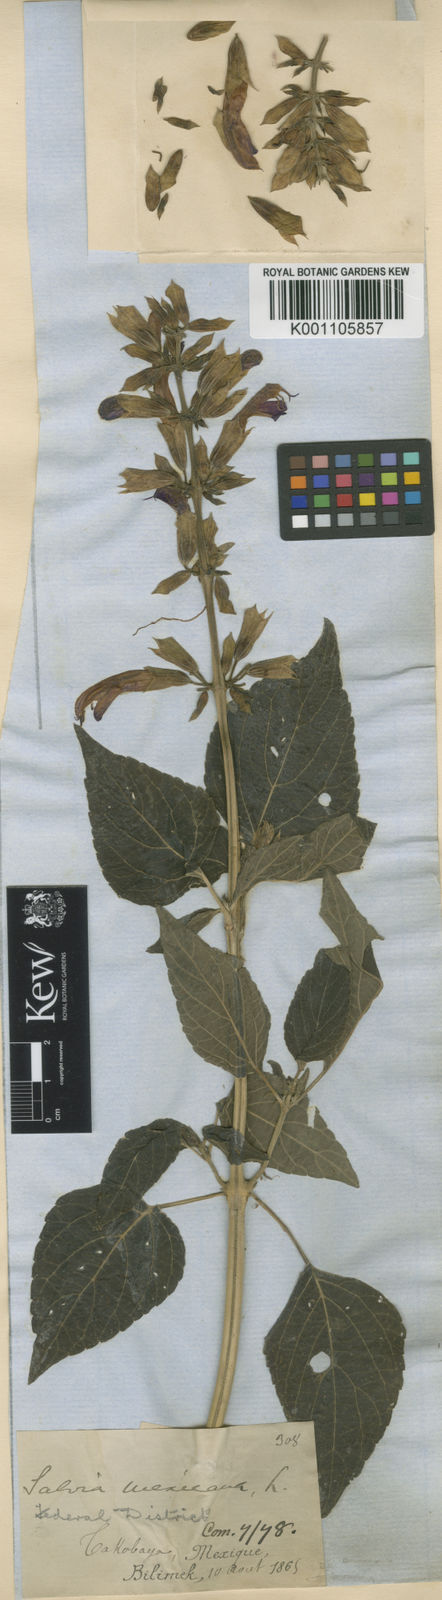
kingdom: Plantae
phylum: Tracheophyta
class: Magnoliopsida
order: Lamiales
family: Lamiaceae
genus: Salvia
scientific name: Salvia discolor
